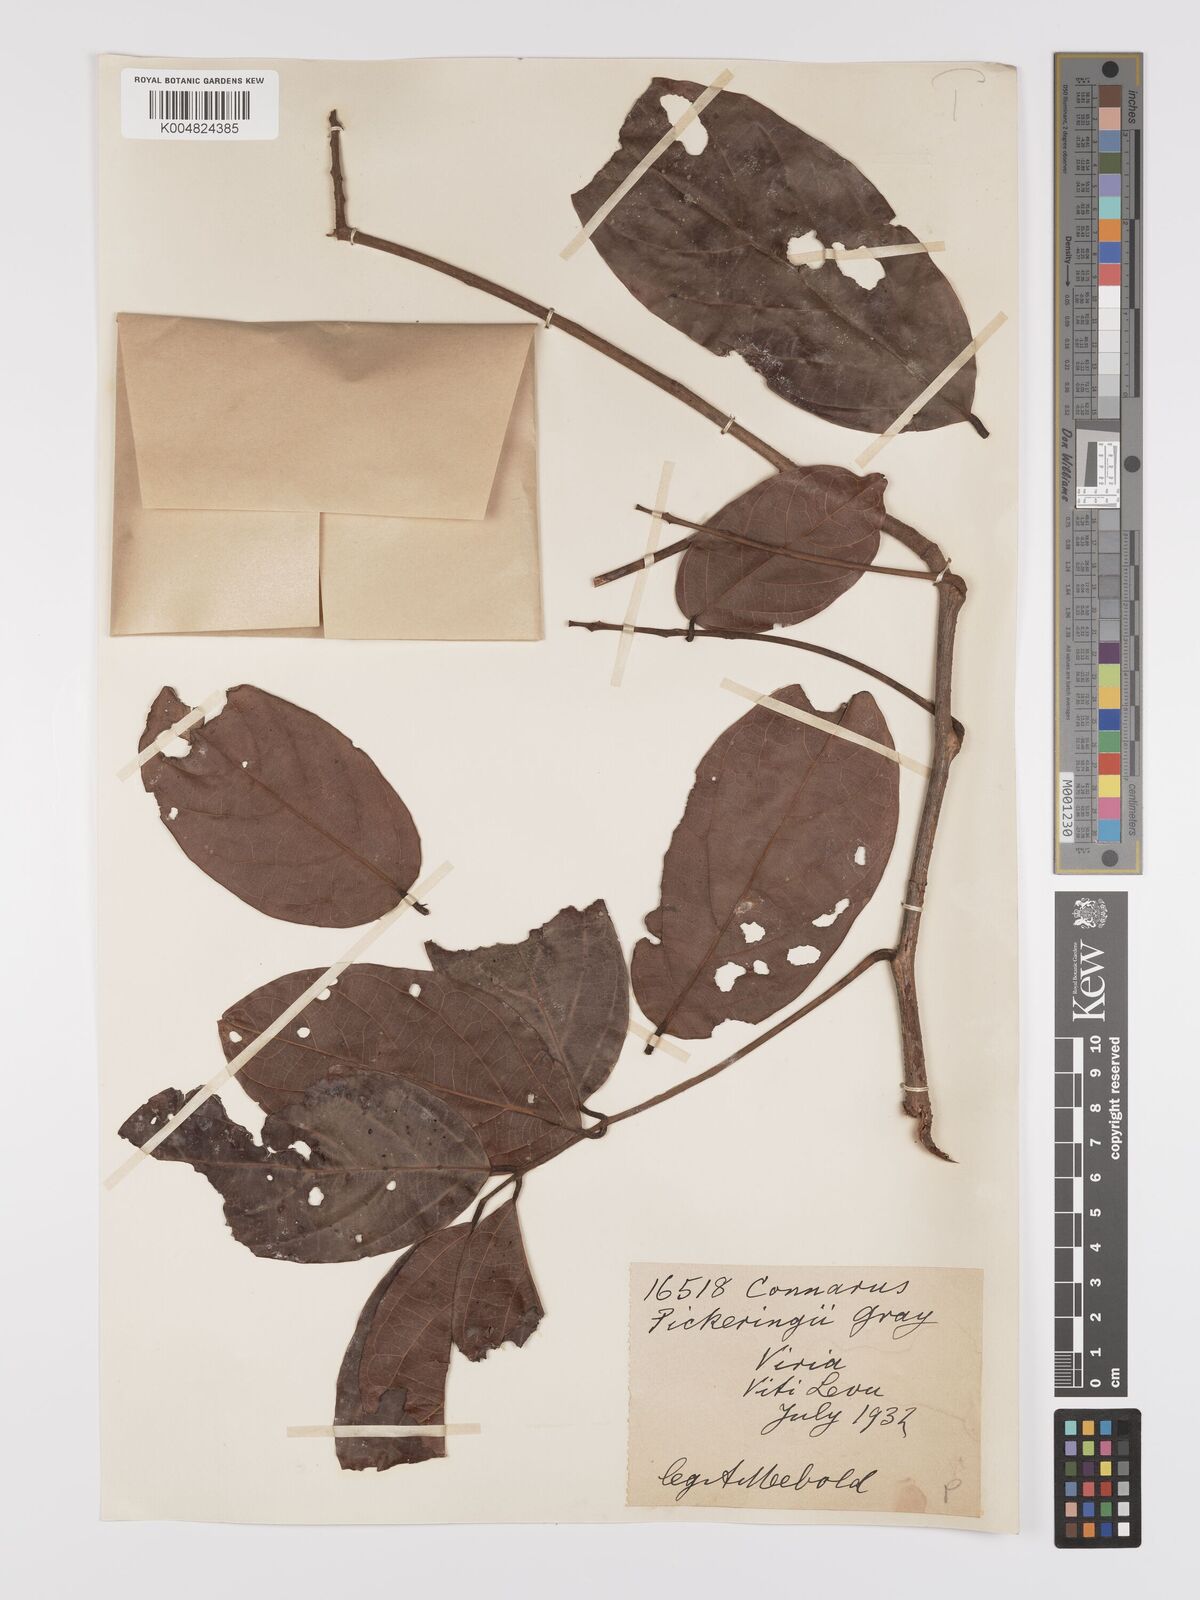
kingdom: Plantae
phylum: Tracheophyta
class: Magnoliopsida
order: Oxalidales
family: Connaraceae
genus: Connarus
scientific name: Connarus pickeringii
